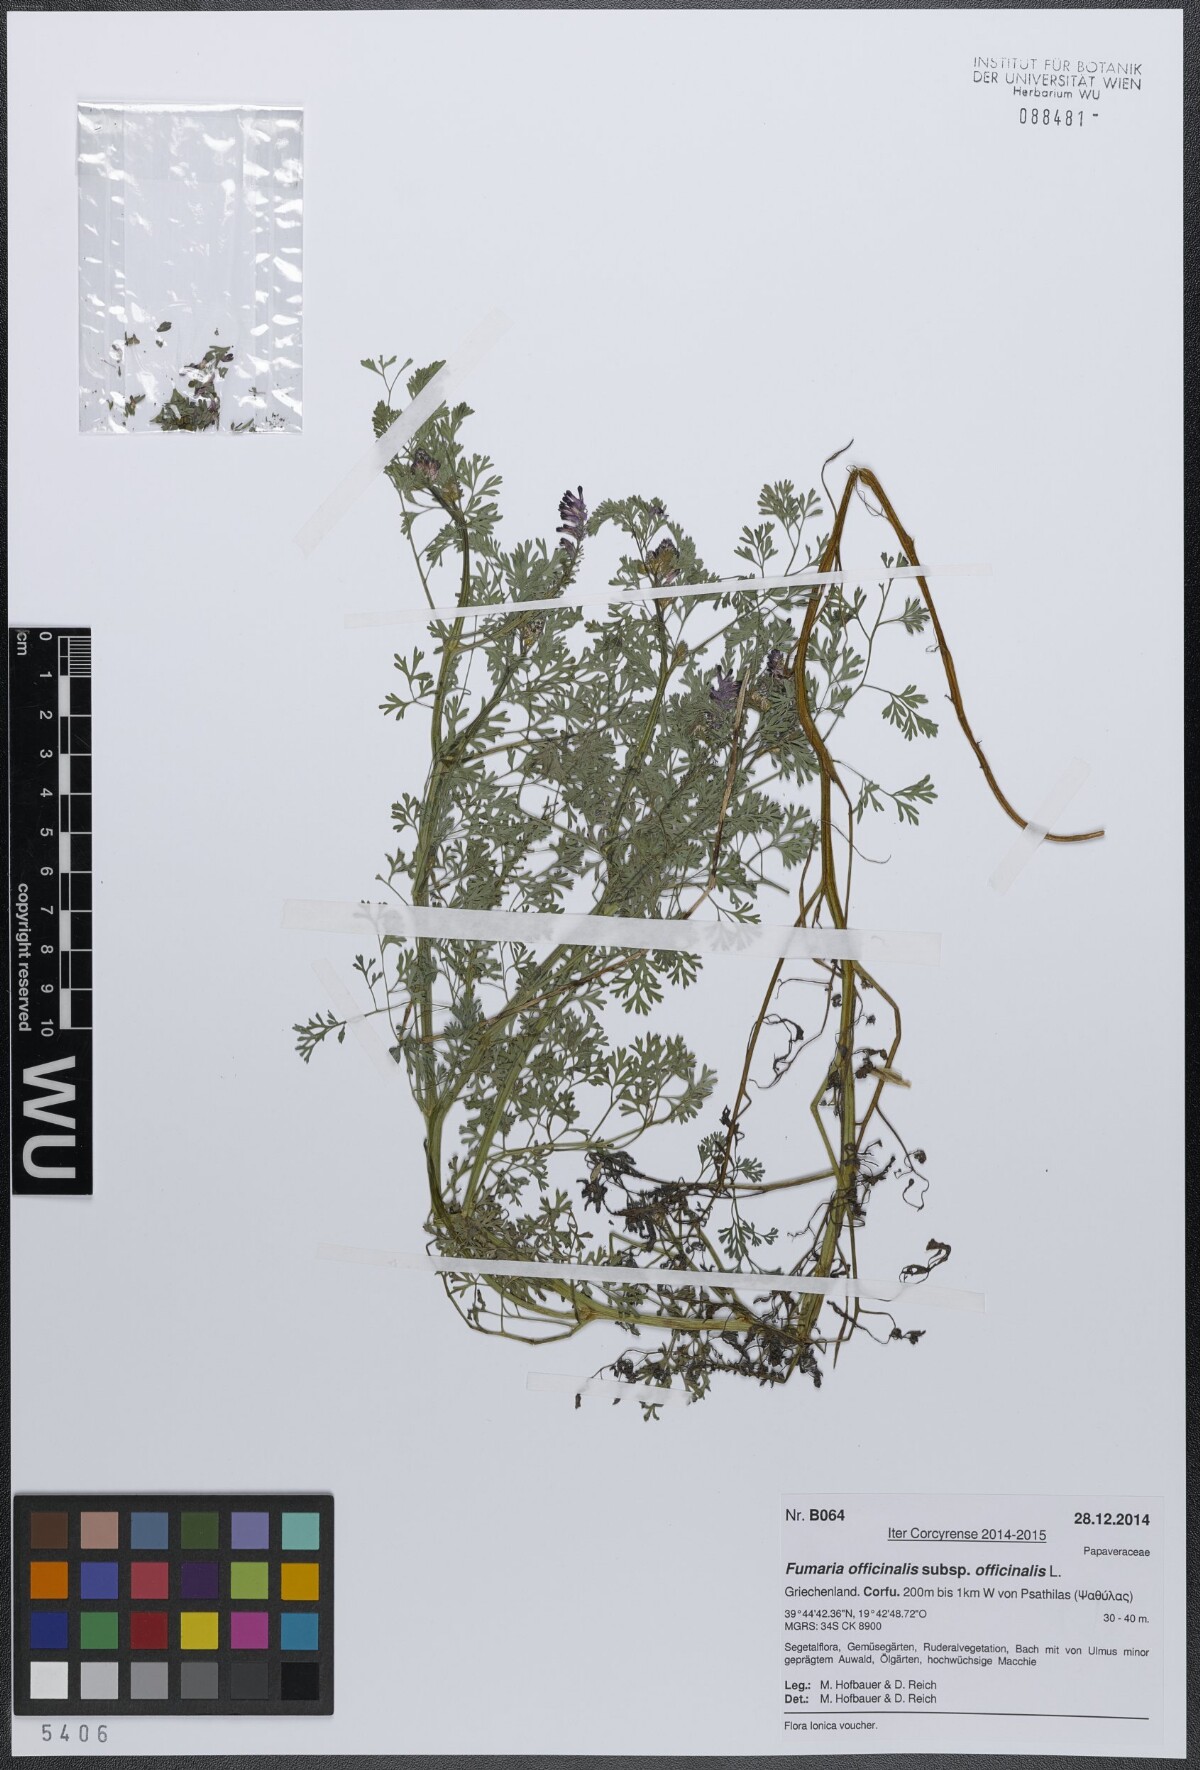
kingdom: Plantae
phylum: Tracheophyta
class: Magnoliopsida
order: Ranunculales
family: Papaveraceae
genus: Fumaria
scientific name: Fumaria officinalis
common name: Common fumitory
